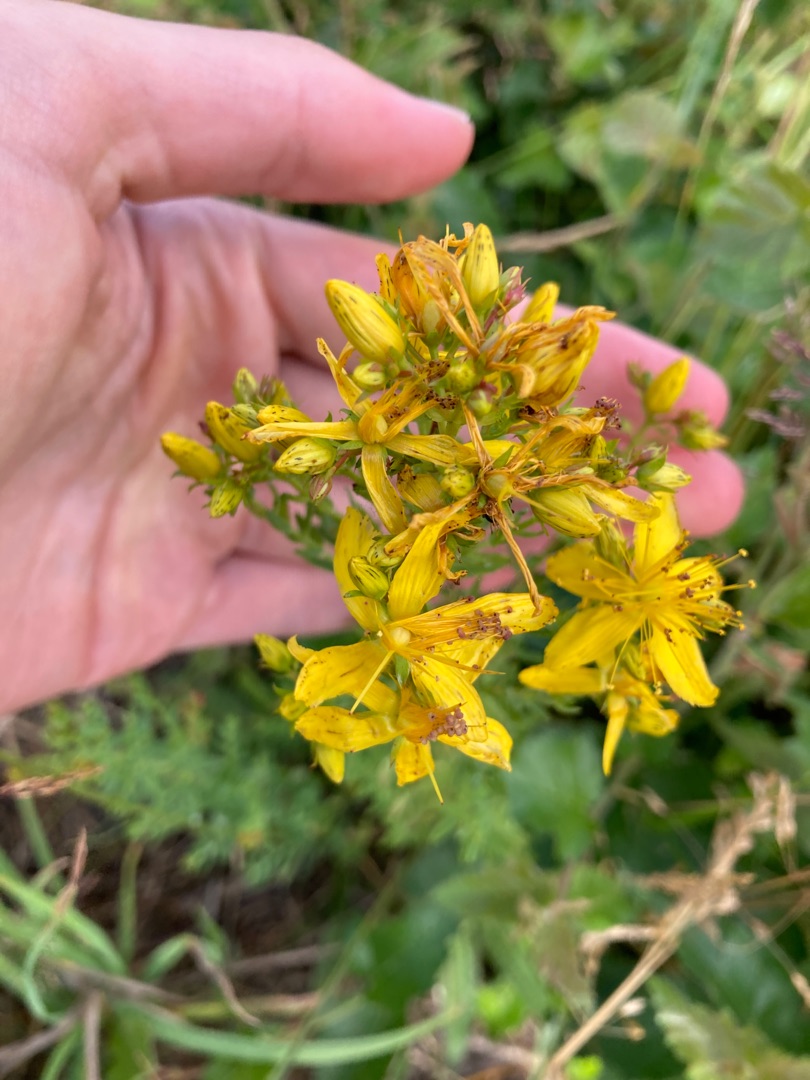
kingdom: Plantae
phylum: Tracheophyta
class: Magnoliopsida
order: Malpighiales
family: Hypericaceae
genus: Hypericum
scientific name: Hypericum perforatum
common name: Prikbladet perikon
